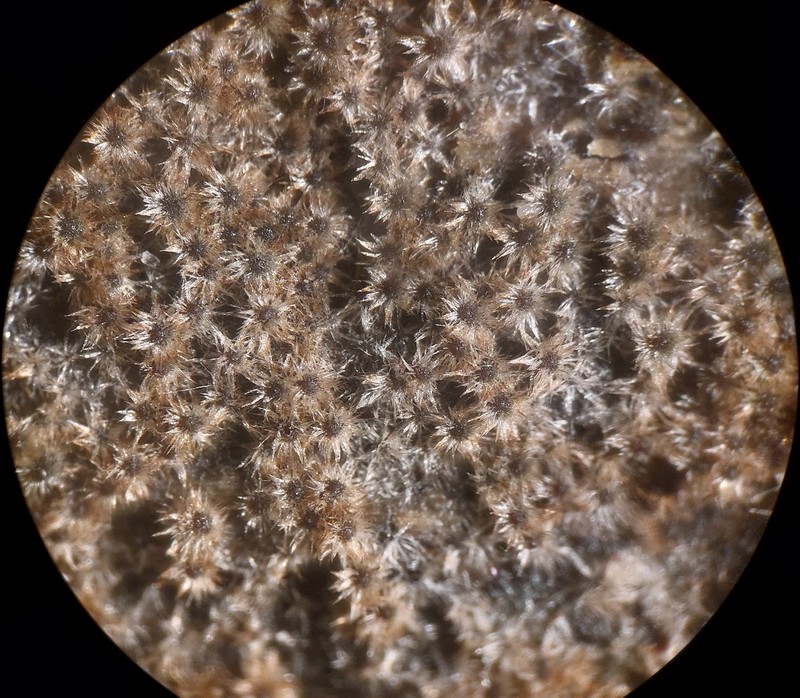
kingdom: Fungi
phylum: Ascomycota
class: Sordariomycetes
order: Sordariales
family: Helminthosphaeriaceae
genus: Echinosphaeria
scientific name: Echinosphaeria canescens
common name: brun børstekerne
